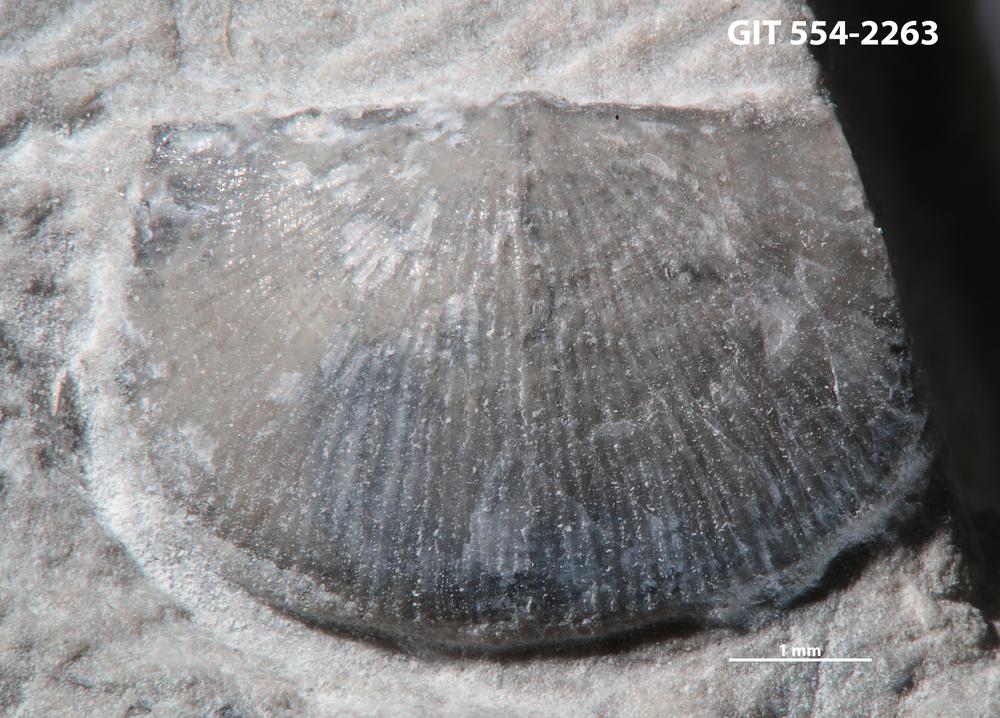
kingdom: Animalia
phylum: Brachiopoda
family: Chonetidae
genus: Strophochonetes
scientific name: Strophochonetes Chonetes cingulata
